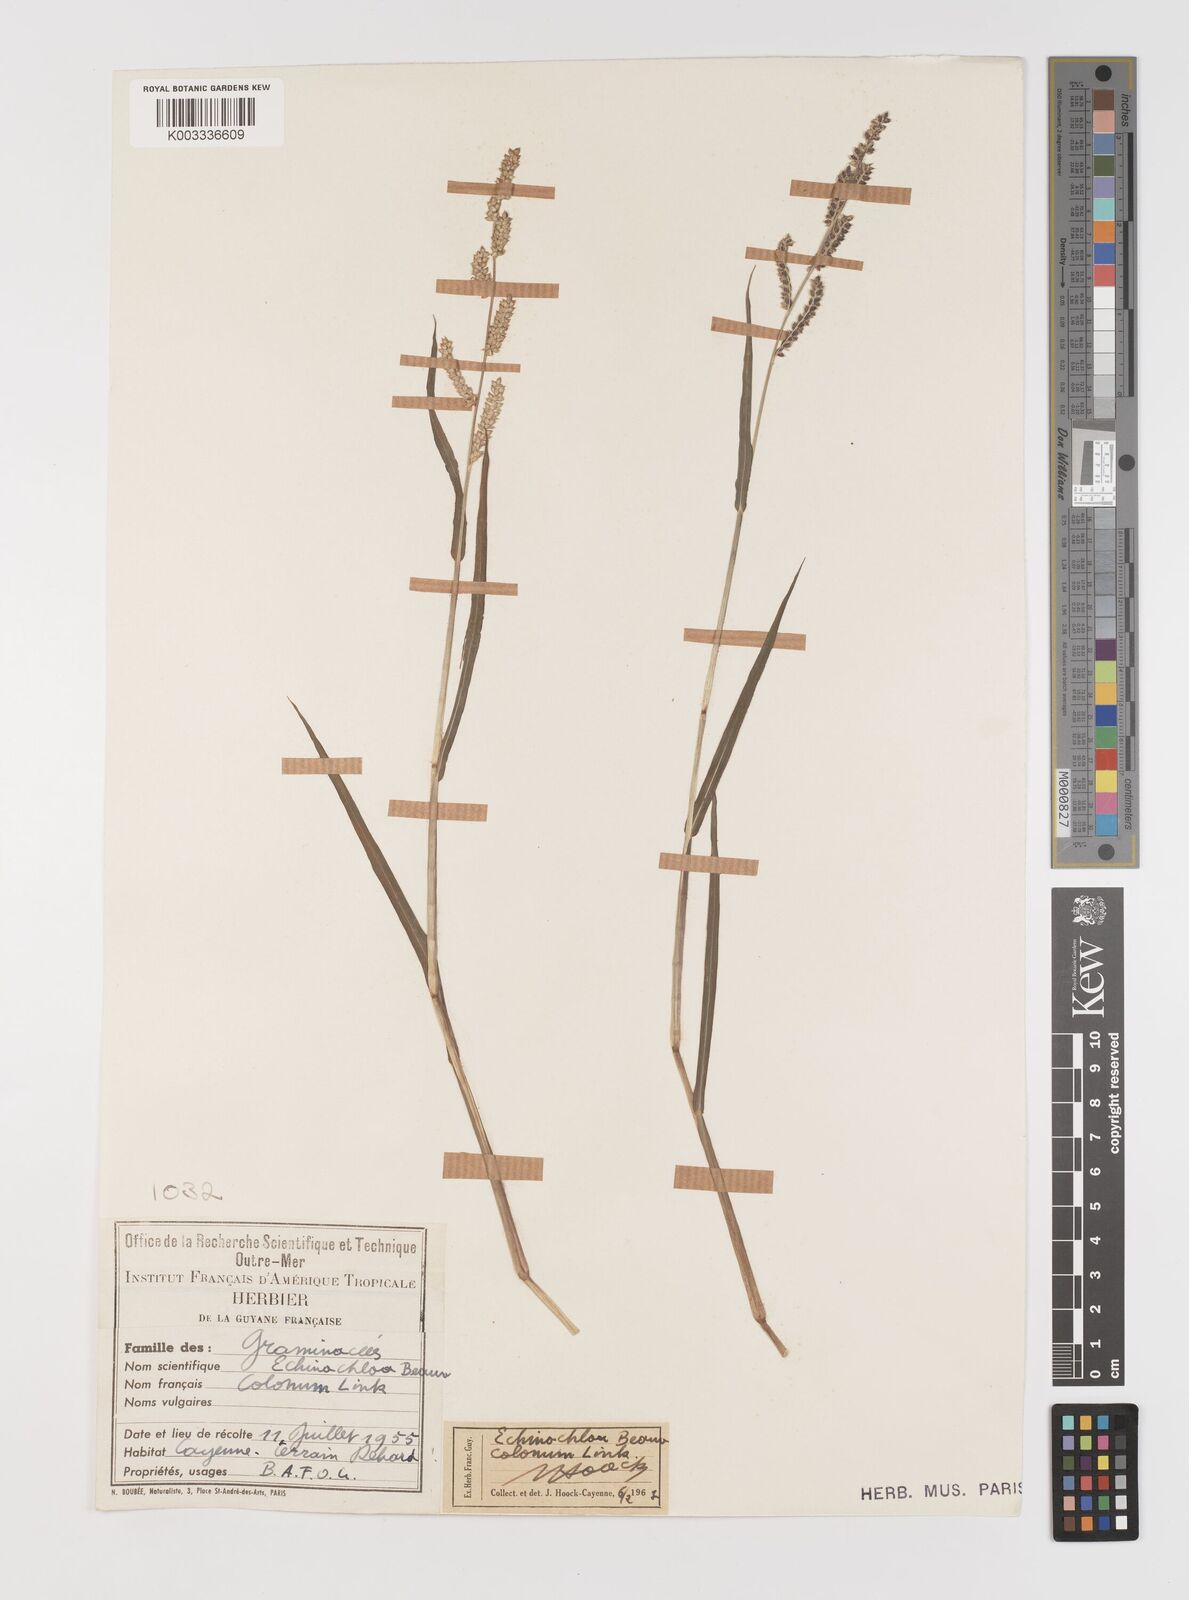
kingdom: Plantae
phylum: Tracheophyta
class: Liliopsida
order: Poales
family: Poaceae
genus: Echinochloa
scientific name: Echinochloa colonum
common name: Jungle rice
